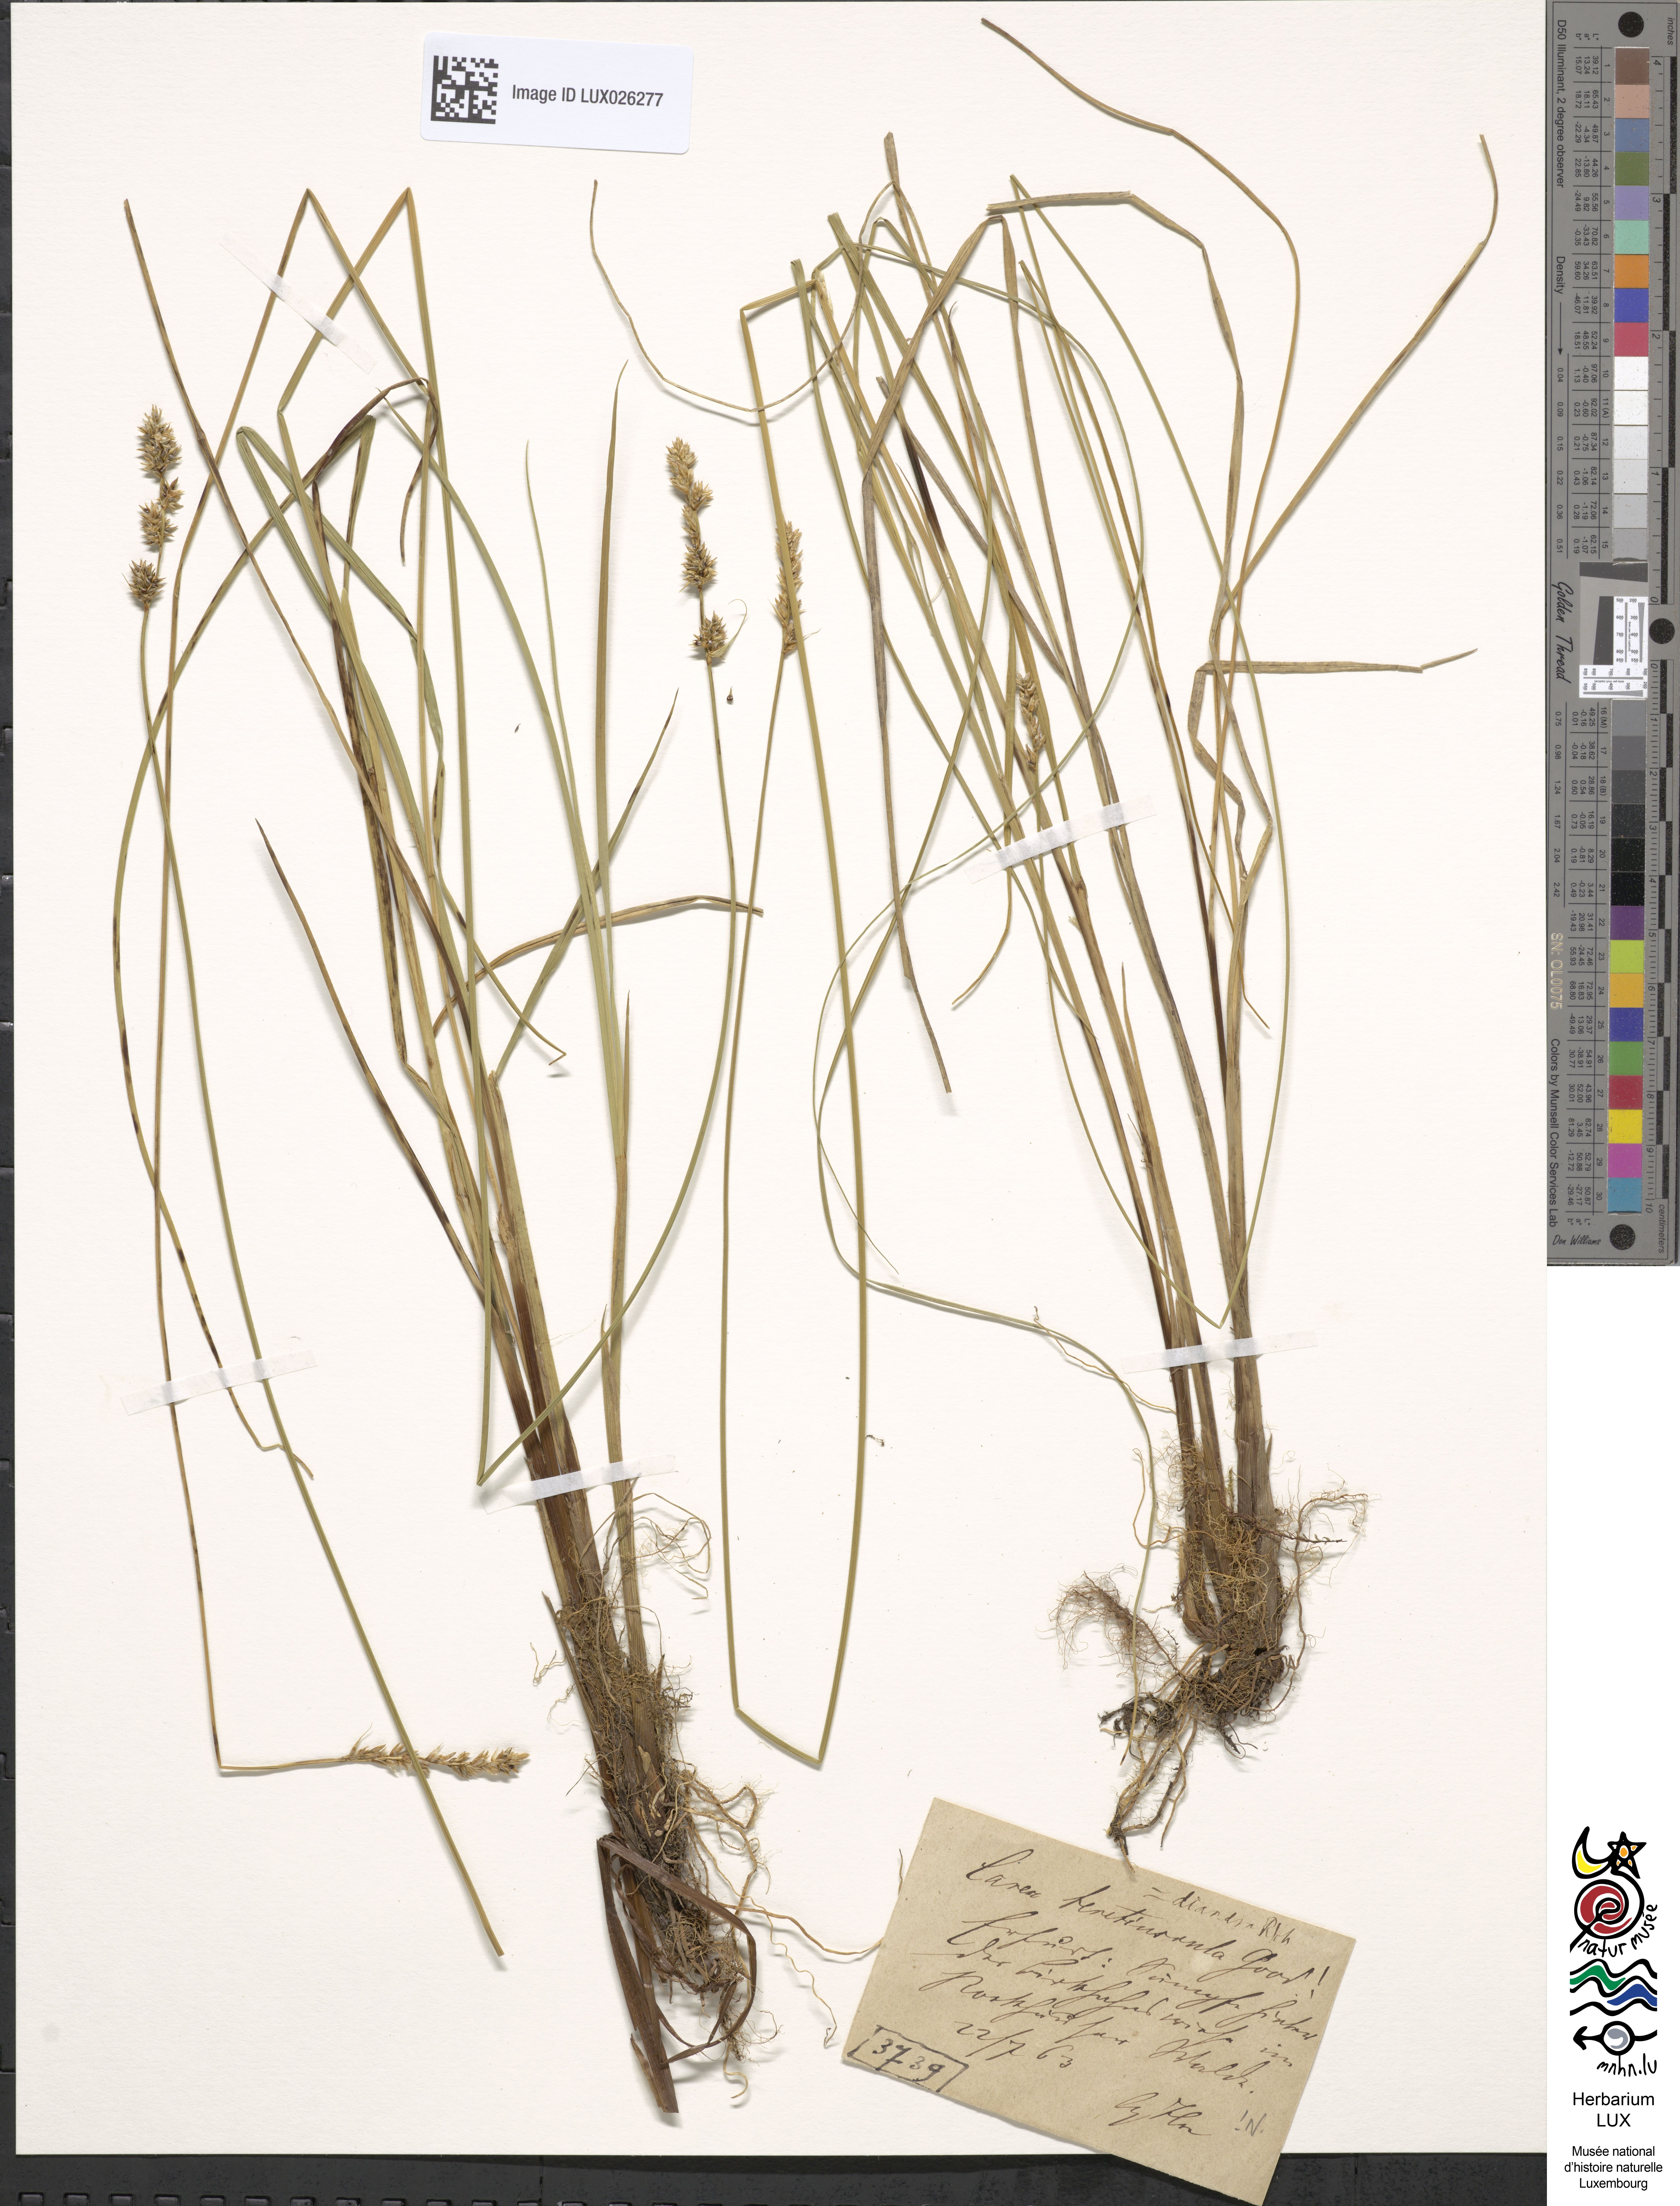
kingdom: Plantae
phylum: Tracheophyta
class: Liliopsida
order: Poales
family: Cyperaceae
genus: Carex
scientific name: Carex diandra
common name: Lesser tussock-sedge
